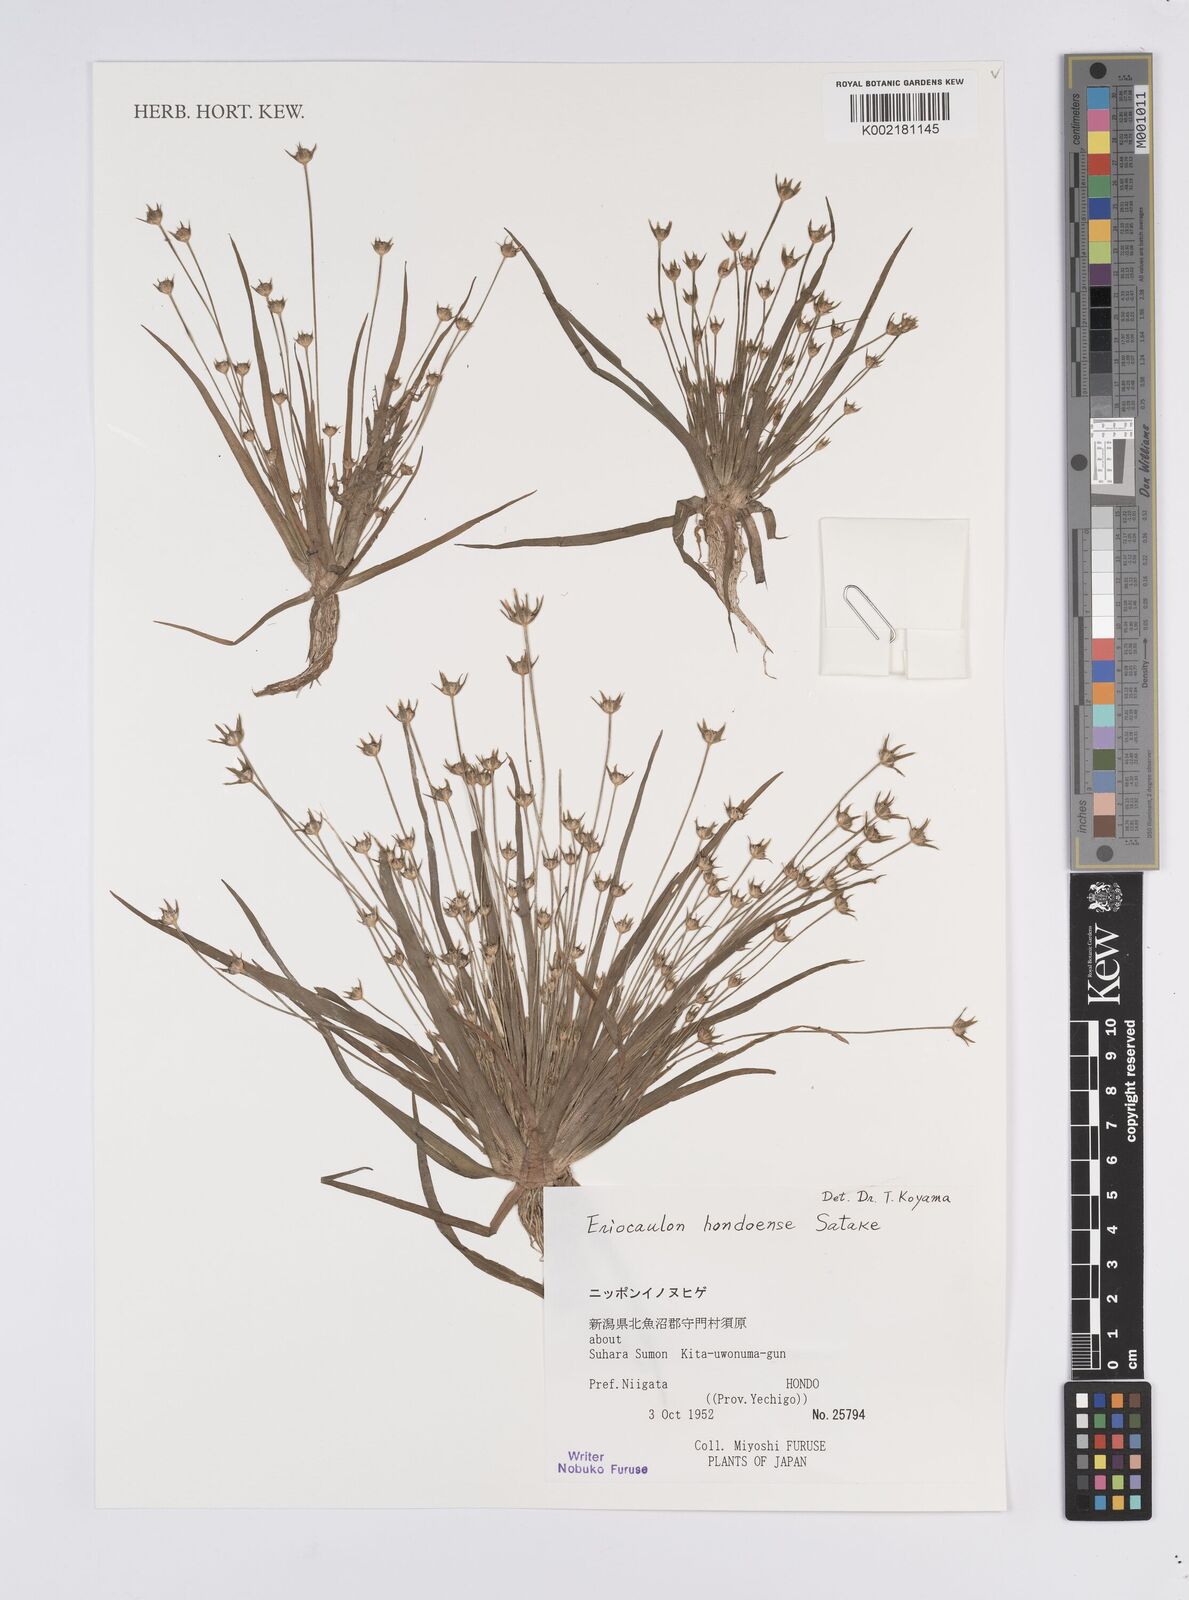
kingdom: Plantae
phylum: Tracheophyta
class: Liliopsida
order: Poales
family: Eriocaulaceae
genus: Eriocaulon
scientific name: Eriocaulon taquetii
